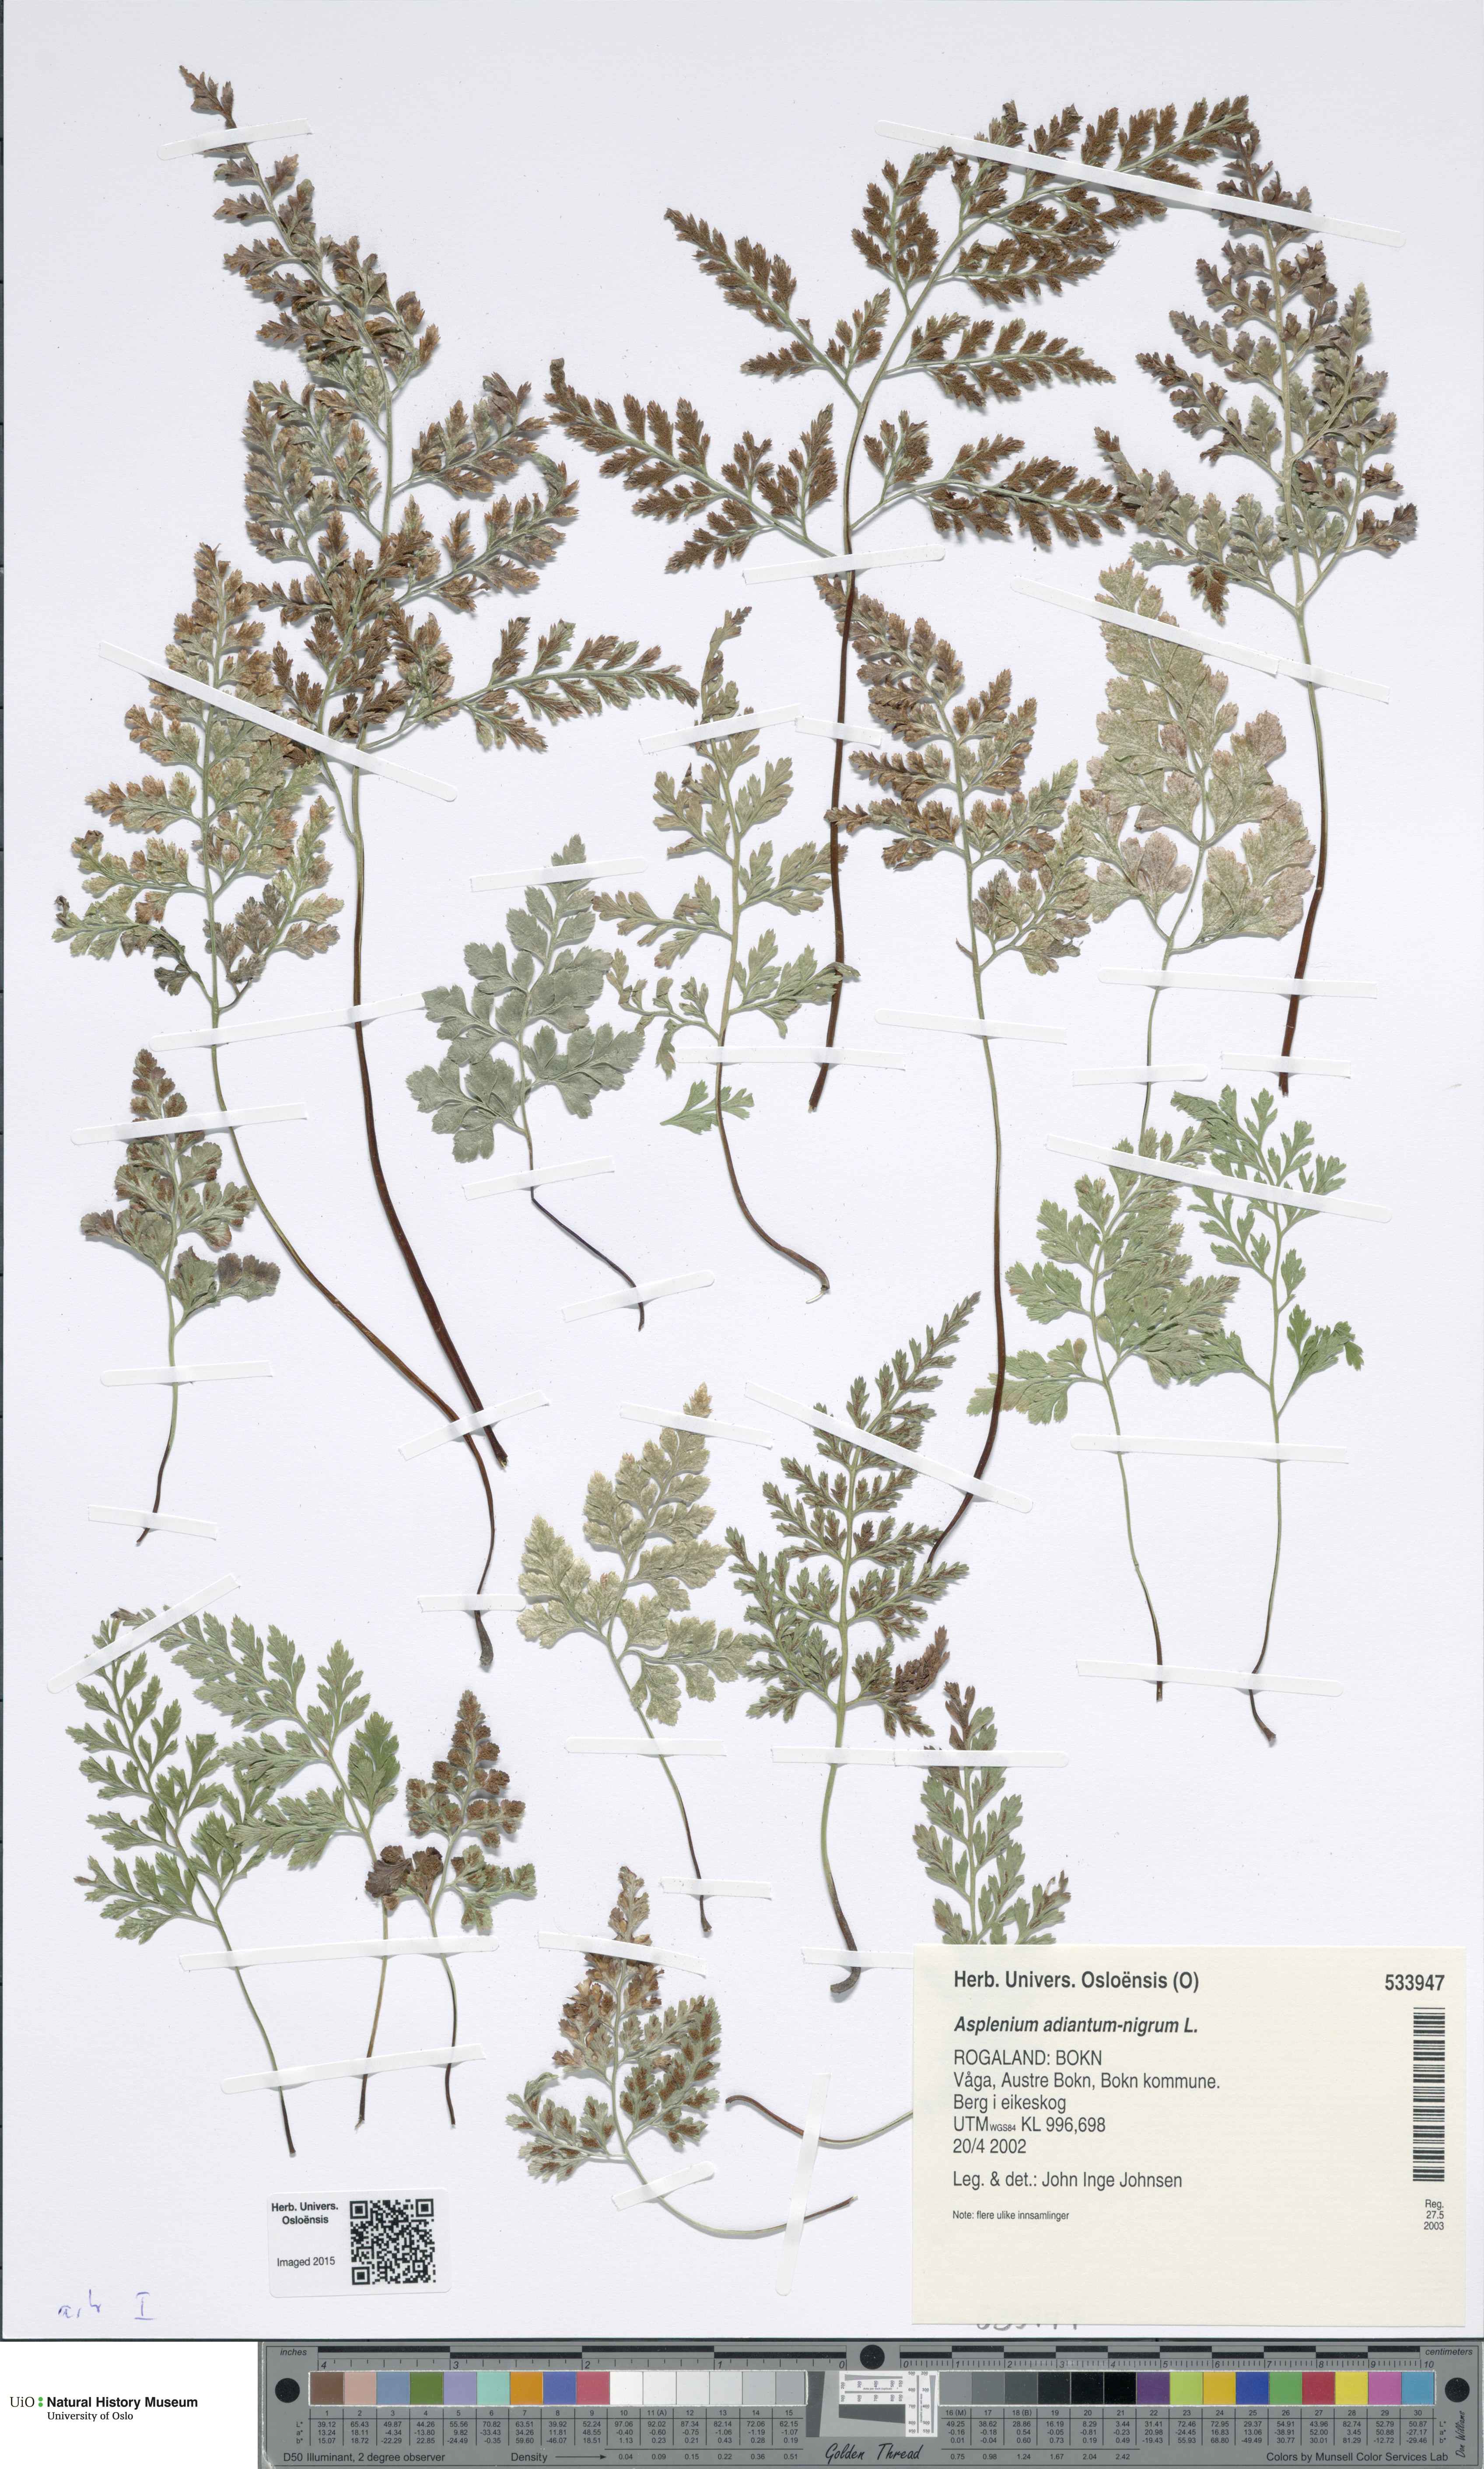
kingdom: Plantae
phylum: Tracheophyta
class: Polypodiopsida
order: Polypodiales
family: Aspleniaceae
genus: Asplenium
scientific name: Asplenium adiantum-nigrum
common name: Black spleenwort
